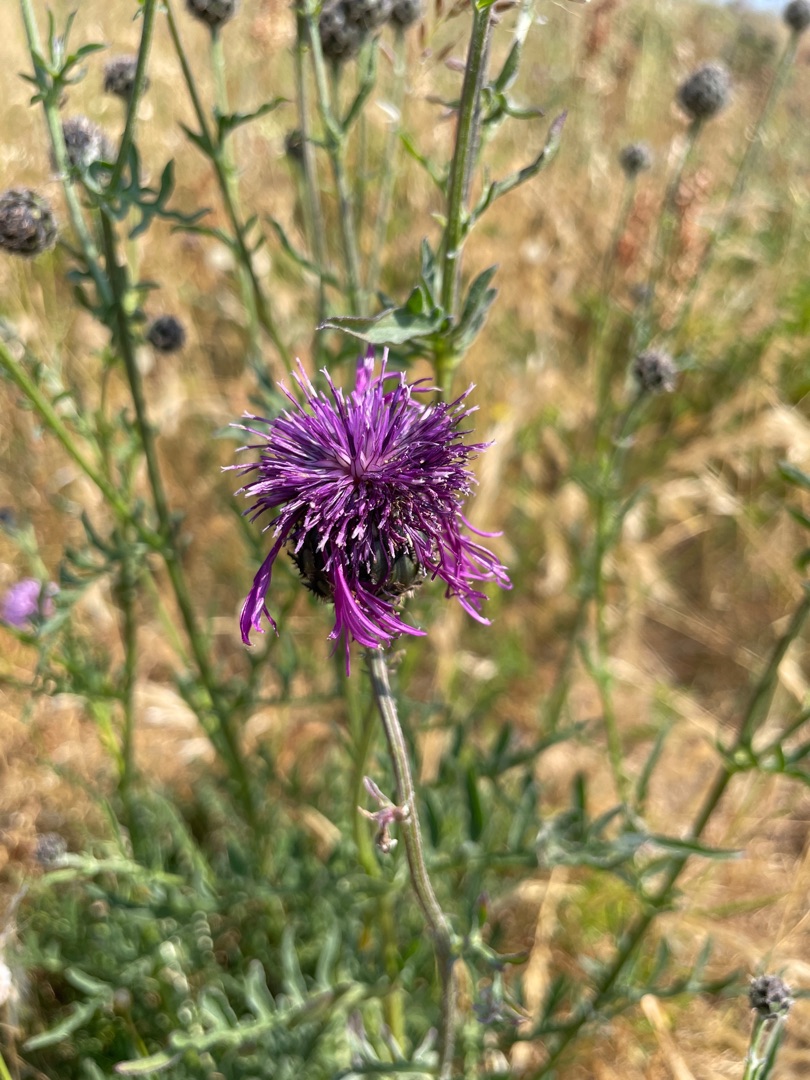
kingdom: Plantae
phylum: Tracheophyta
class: Magnoliopsida
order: Asterales
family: Asteraceae
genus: Centaurea
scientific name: Centaurea scabiosa
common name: Stor knopurt
